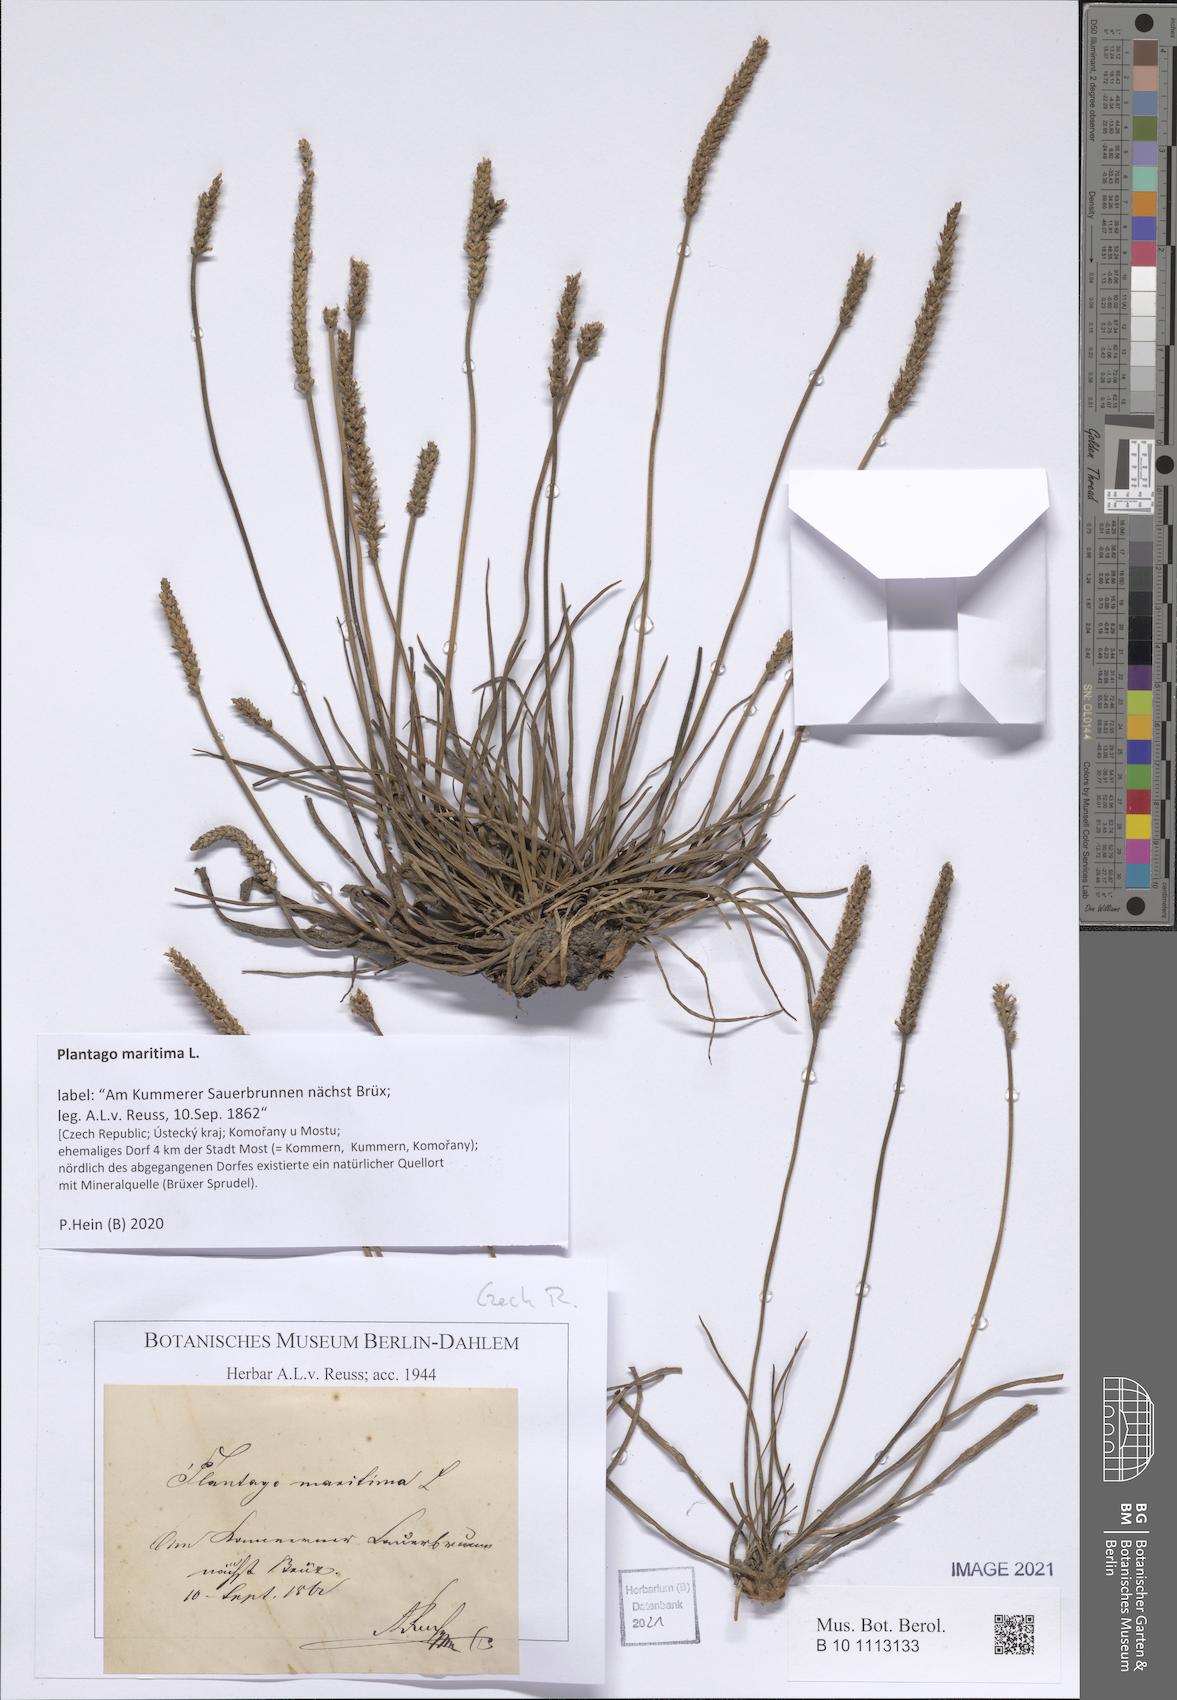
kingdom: Plantae
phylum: Tracheophyta
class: Magnoliopsida
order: Lamiales
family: Plantaginaceae
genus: Plantago
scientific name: Plantago maritima
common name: Sea plantain
